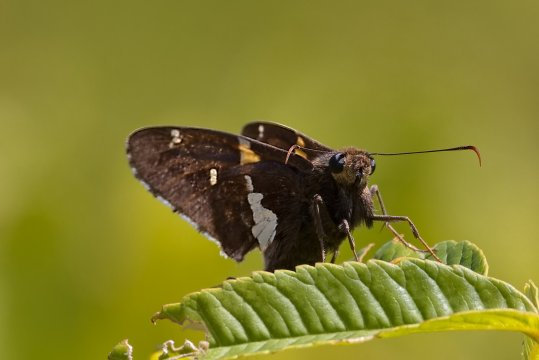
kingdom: Animalia
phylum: Arthropoda
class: Insecta
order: Lepidoptera
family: Hesperiidae
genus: Epargyreus
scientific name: Epargyreus clarus
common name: Silver-spotted Skipper
